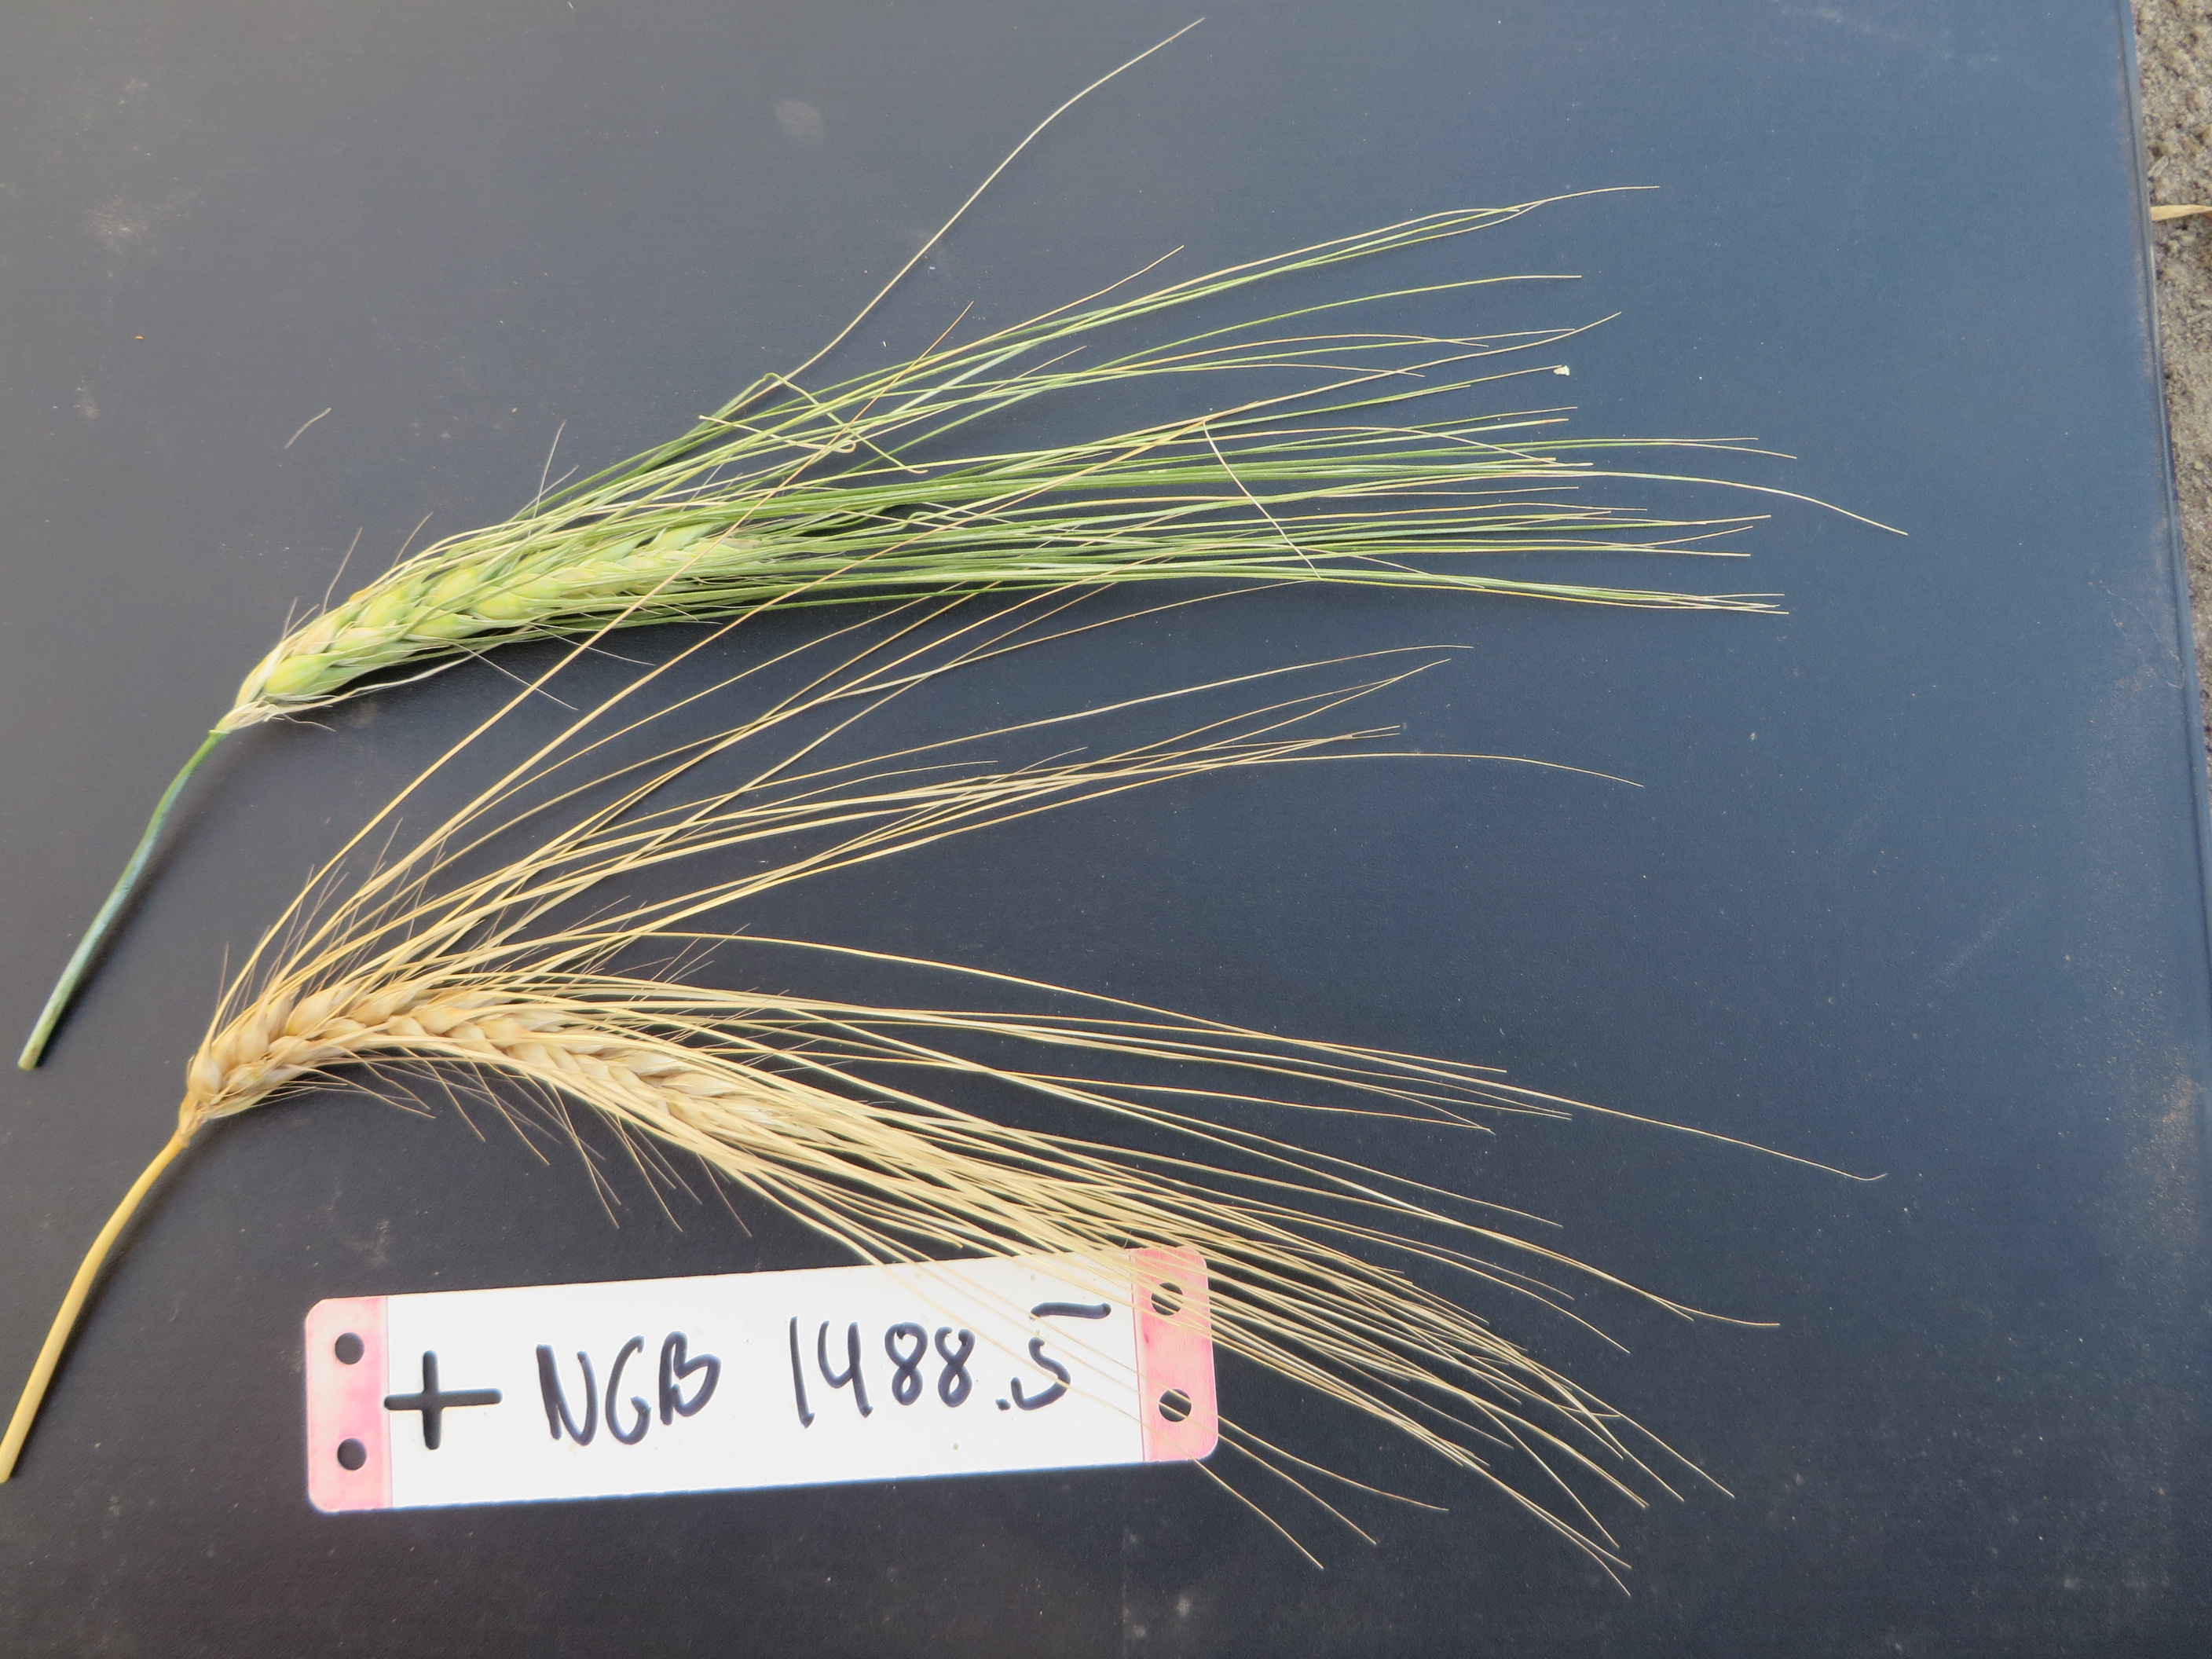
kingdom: Plantae
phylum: Tracheophyta
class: Liliopsida
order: Poales
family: Poaceae
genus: Hordeum
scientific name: Hordeum vulgare
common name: Common barley
